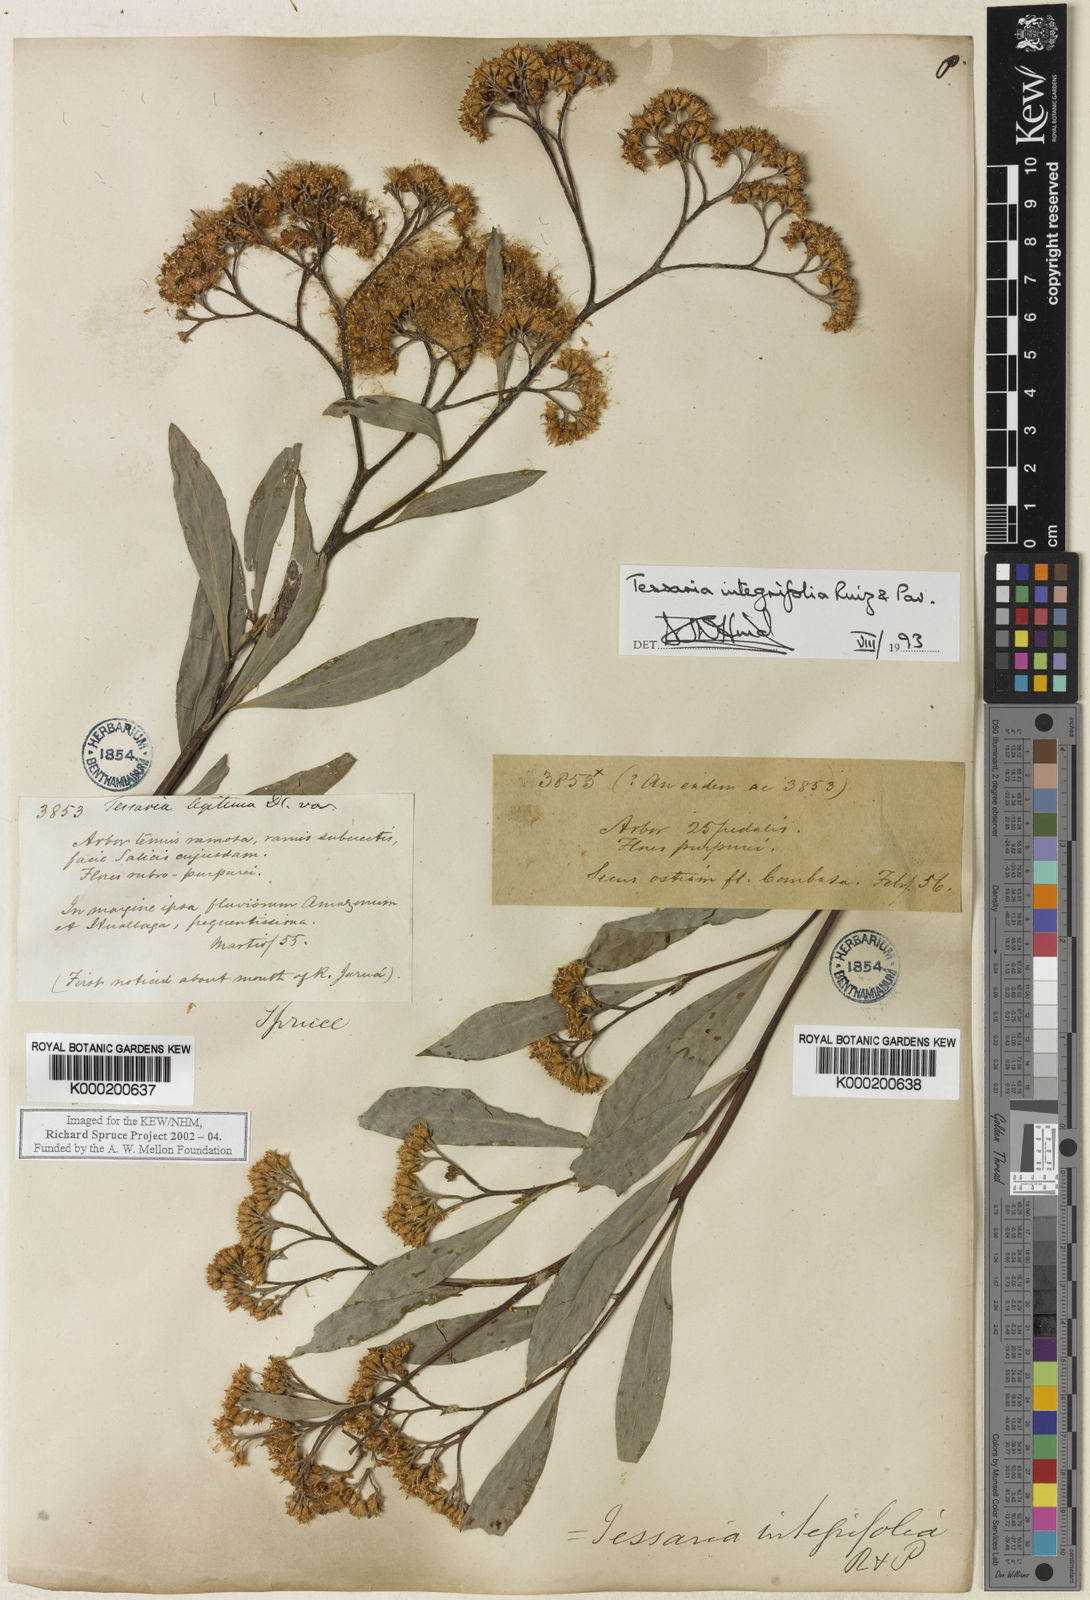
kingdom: Plantae
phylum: Tracheophyta
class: Magnoliopsida
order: Asterales
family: Asteraceae
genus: Tessaria
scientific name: Tessaria integrifolia
